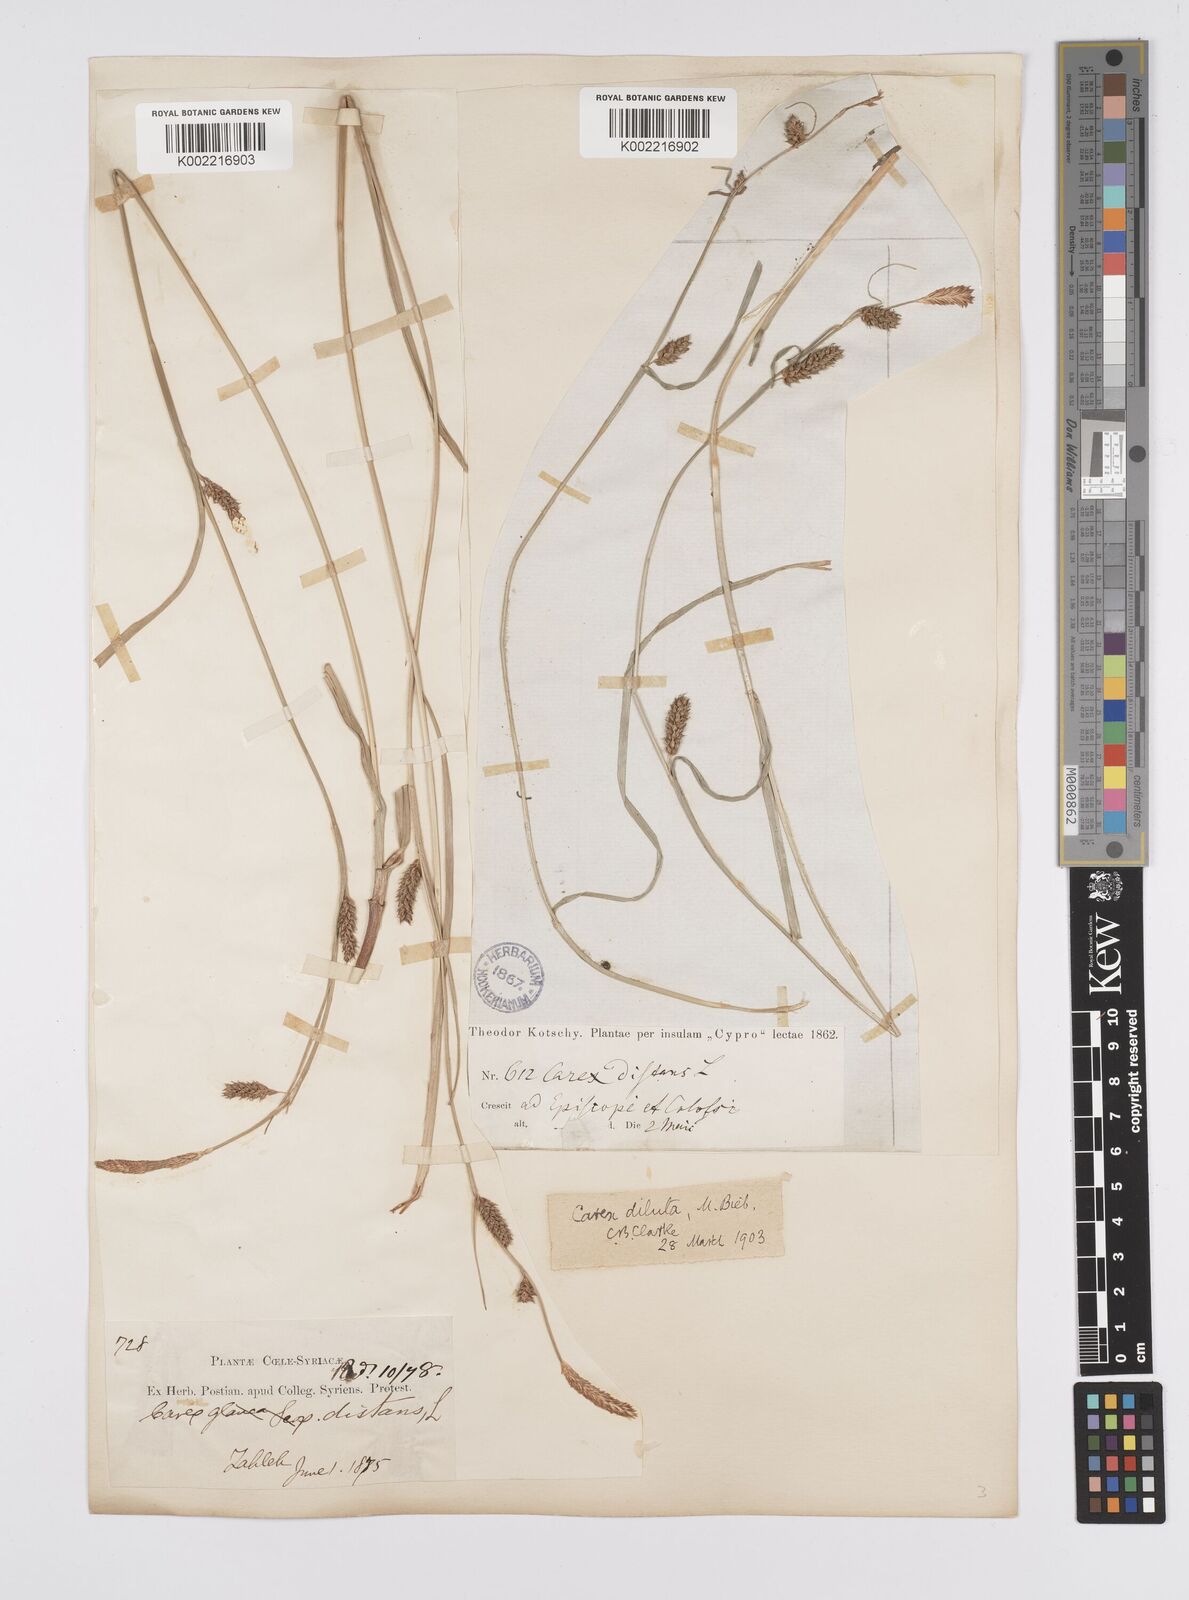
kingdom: Plantae
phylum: Tracheophyta
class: Liliopsida
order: Poales
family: Cyperaceae
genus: Carex
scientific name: Carex distans
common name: Distant sedge
